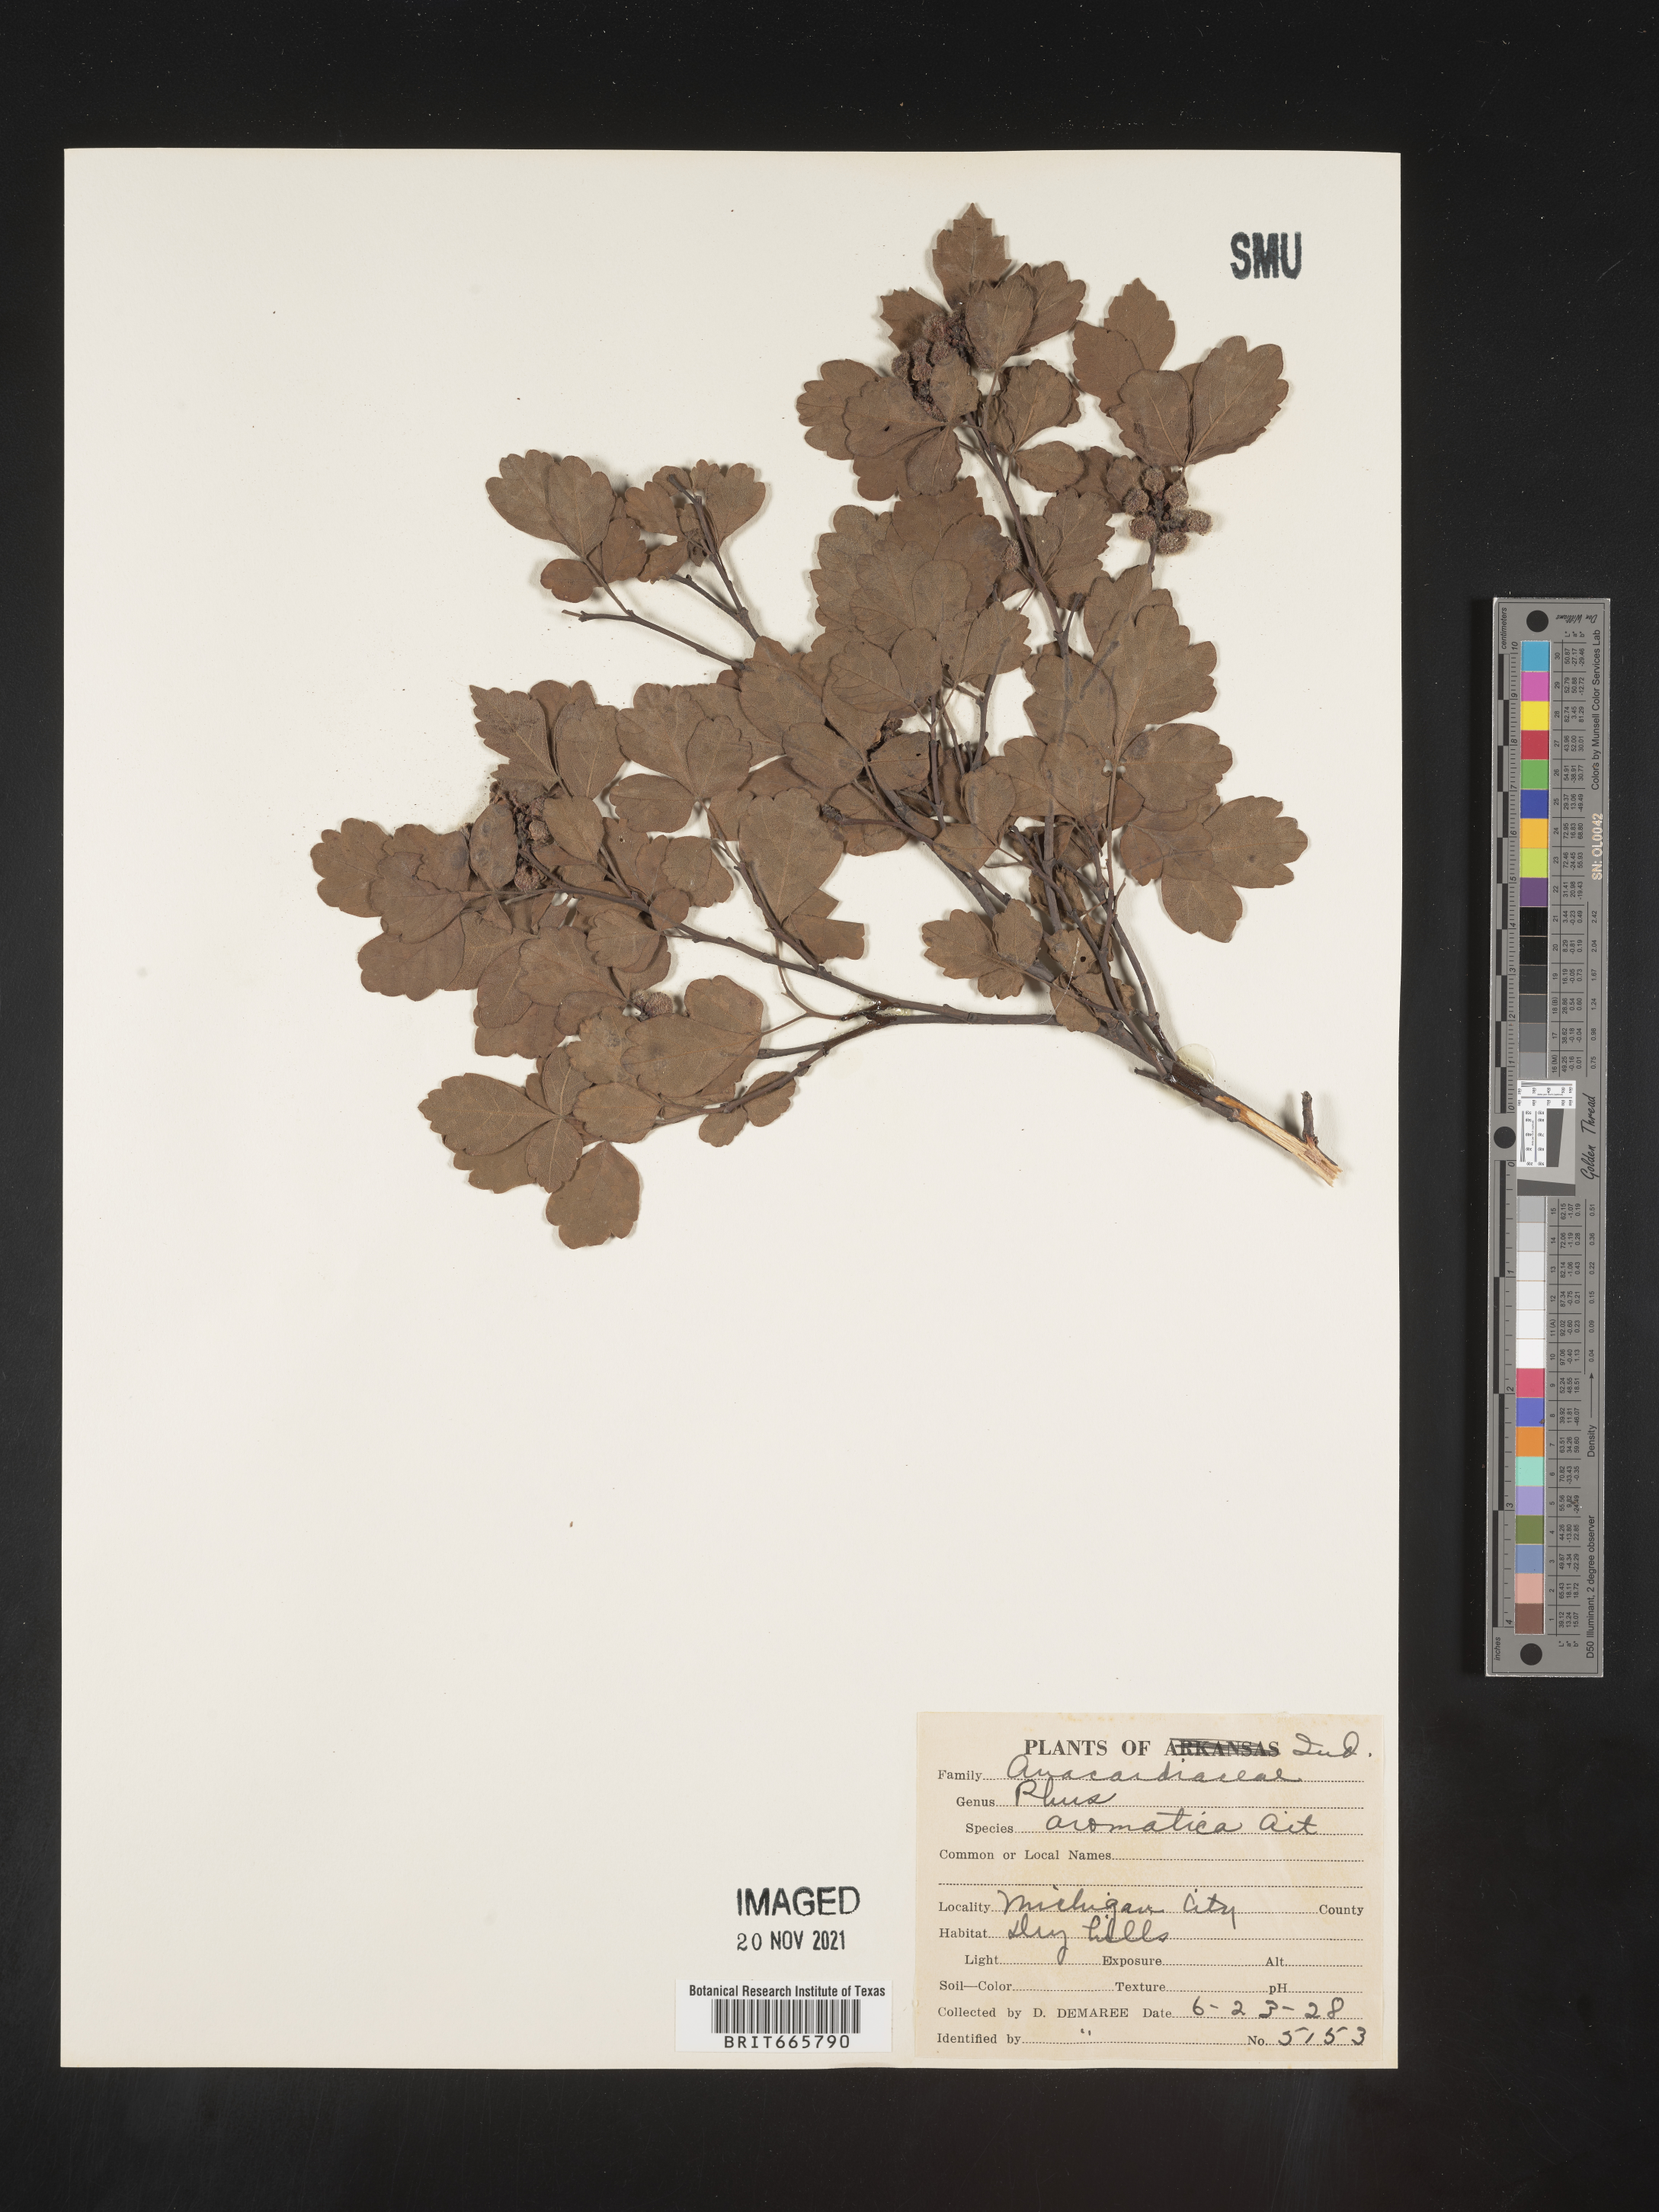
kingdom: Plantae
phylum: Tracheophyta
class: Magnoliopsida
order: Sapindales
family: Anacardiaceae
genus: Rhus
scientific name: Rhus aromatica
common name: Aromatic sumac
